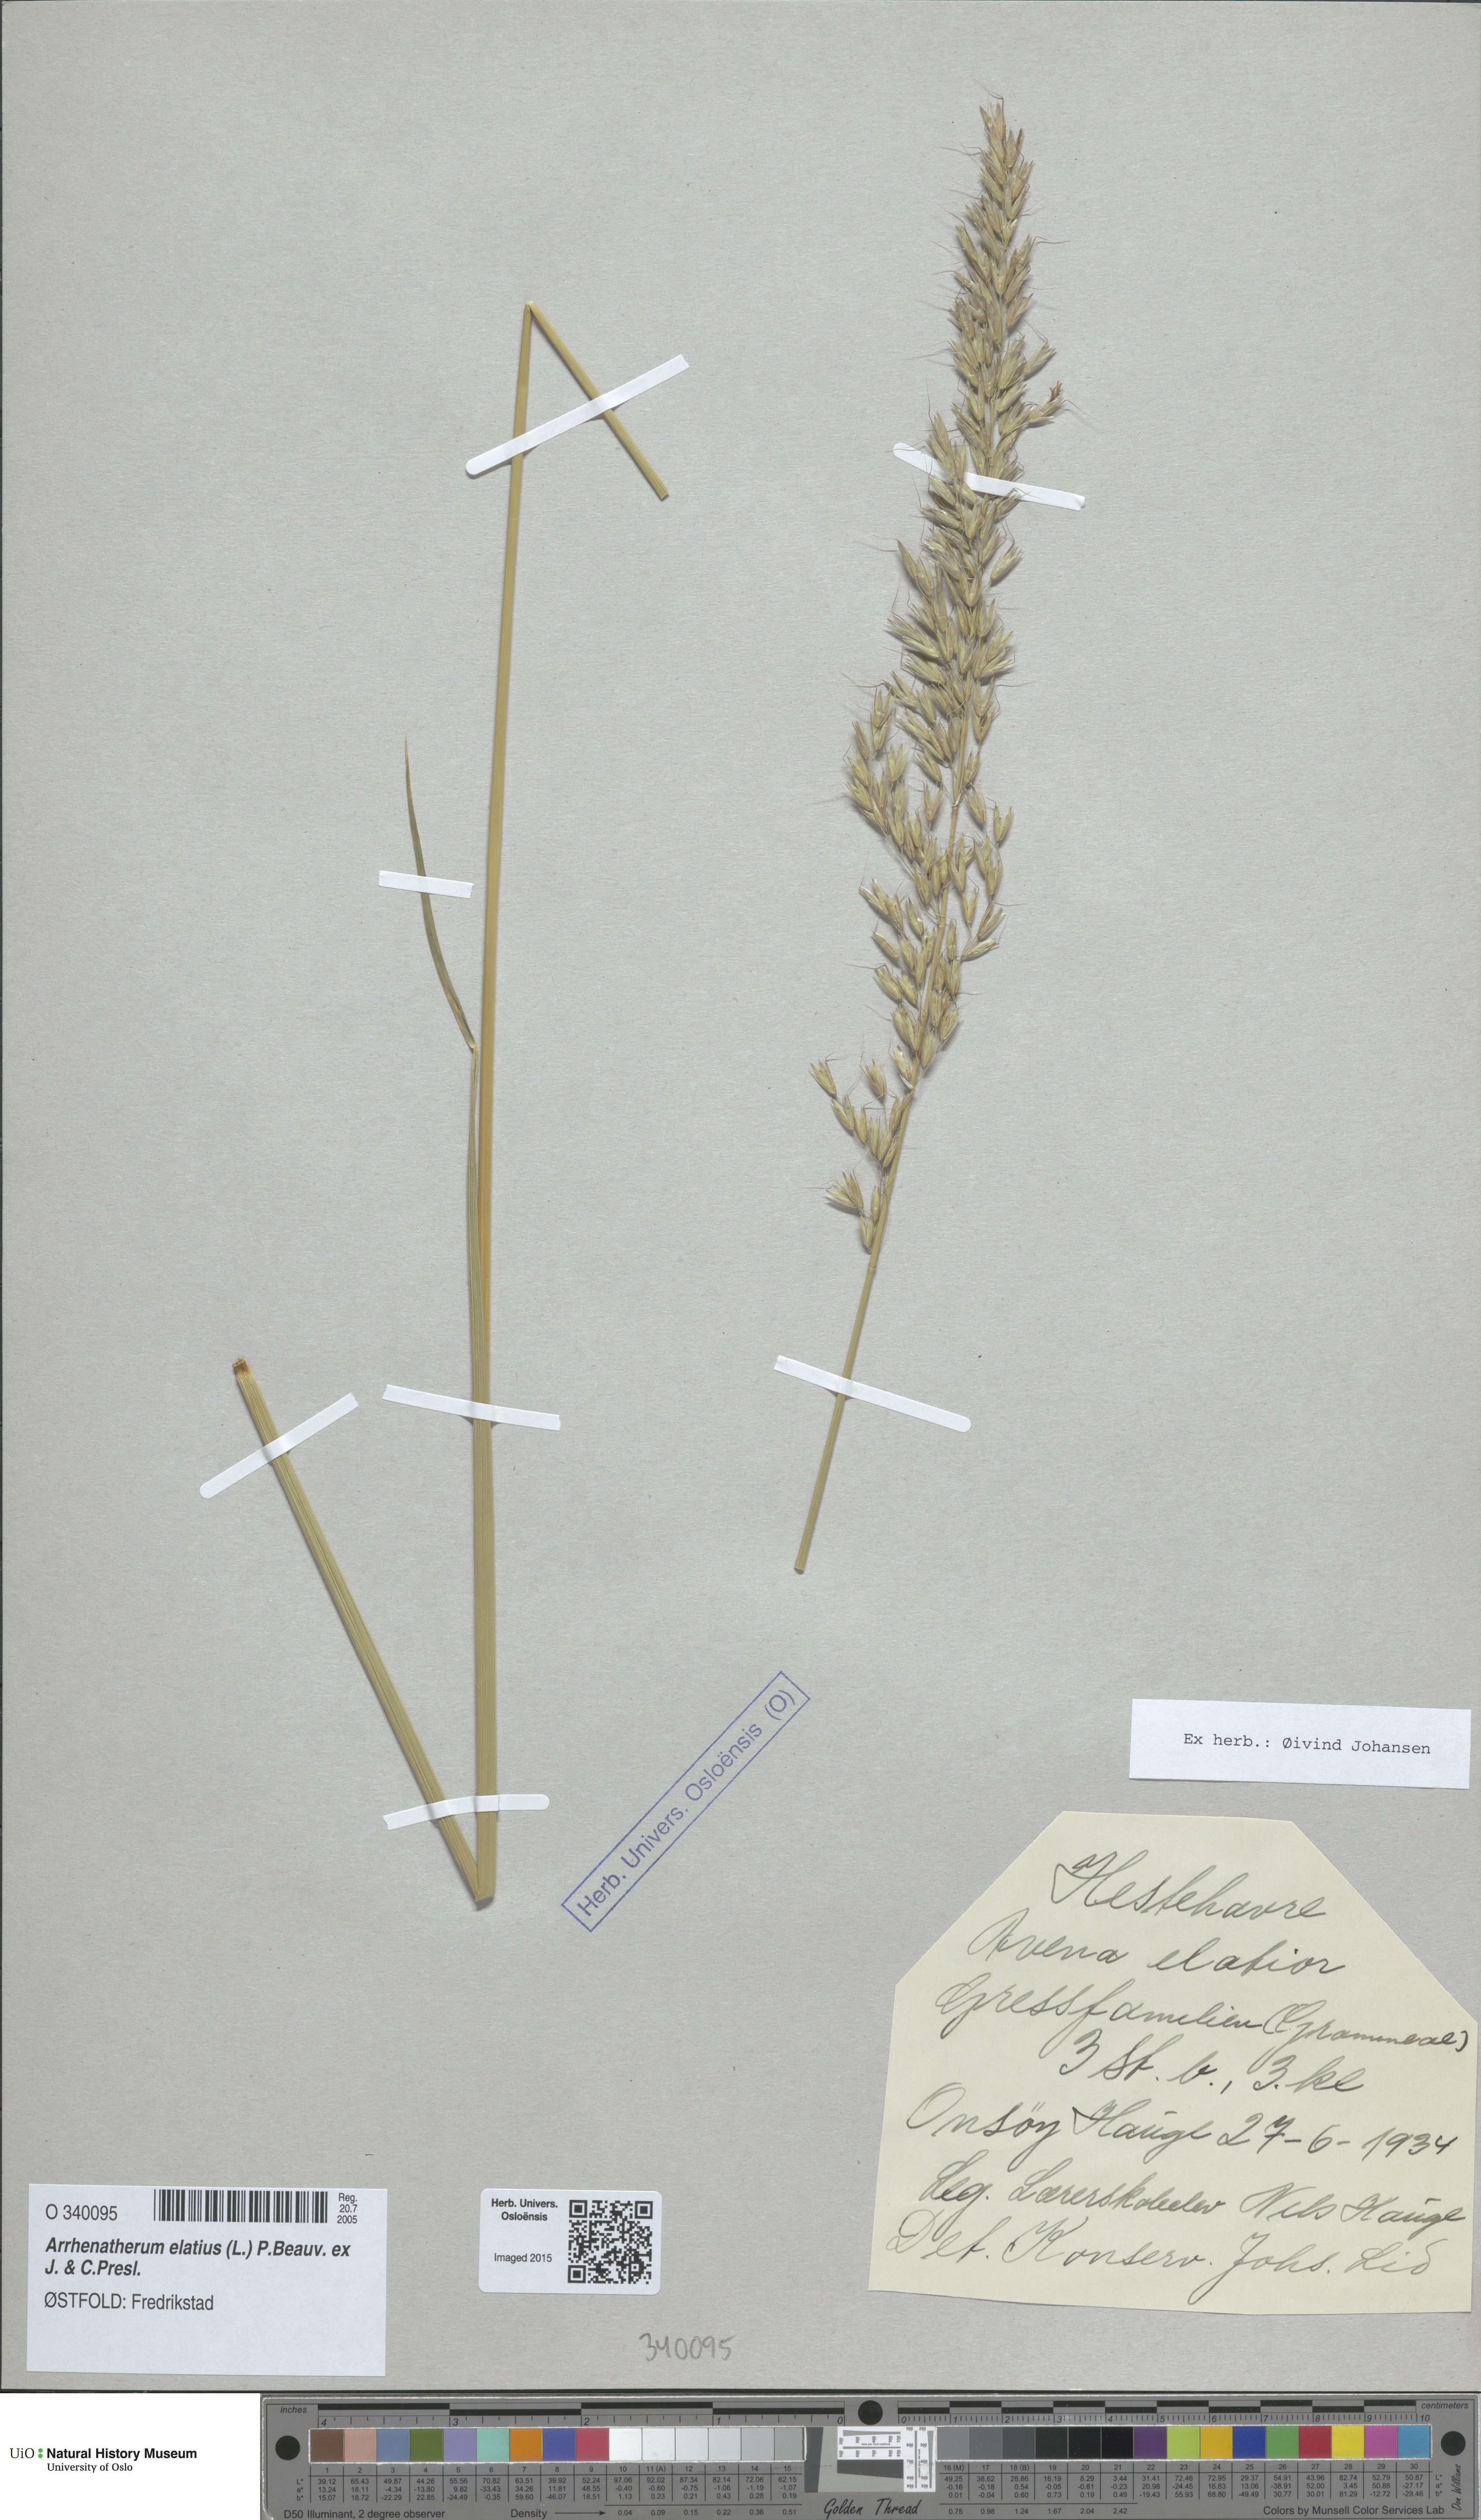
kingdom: Plantae
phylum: Tracheophyta
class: Liliopsida
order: Poales
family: Poaceae
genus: Arrhenatherum
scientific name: Arrhenatherum elatius
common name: Tall oatgrass
